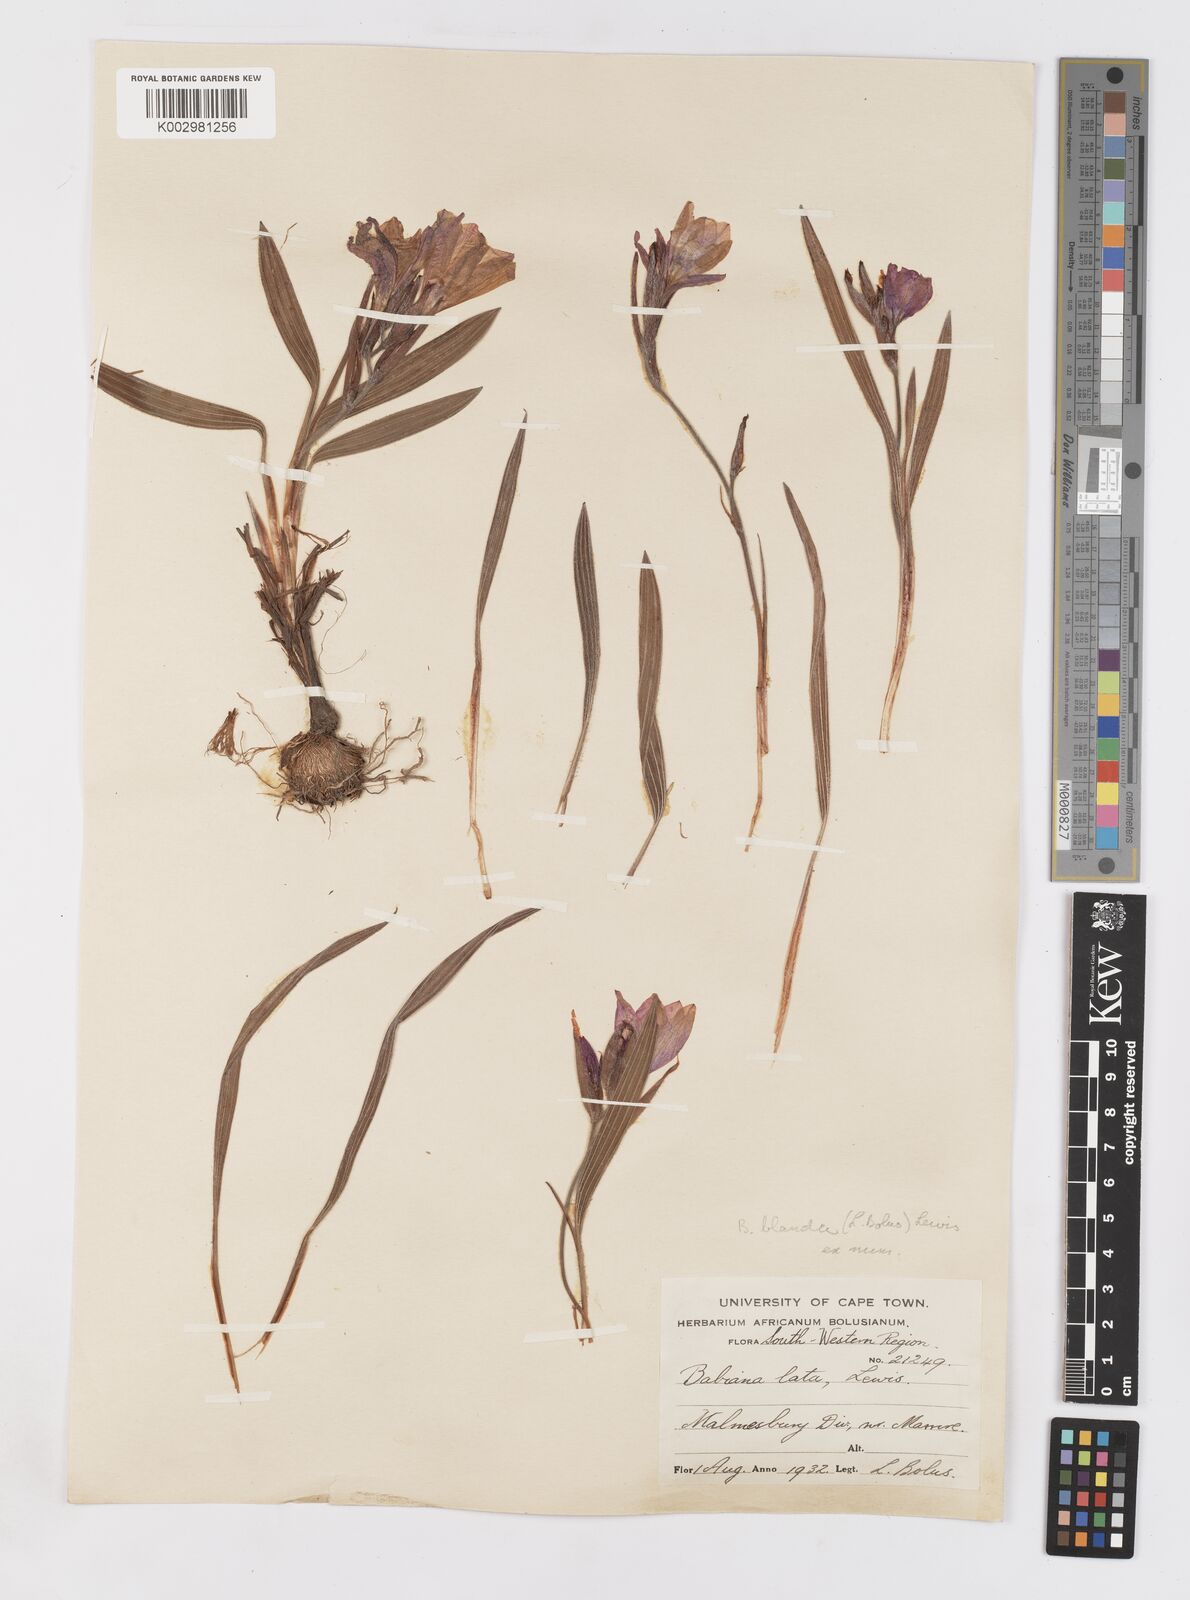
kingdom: Plantae
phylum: Tracheophyta
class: Liliopsida
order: Asparagales
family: Iridaceae
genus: Babiana
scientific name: Babiana blanda
